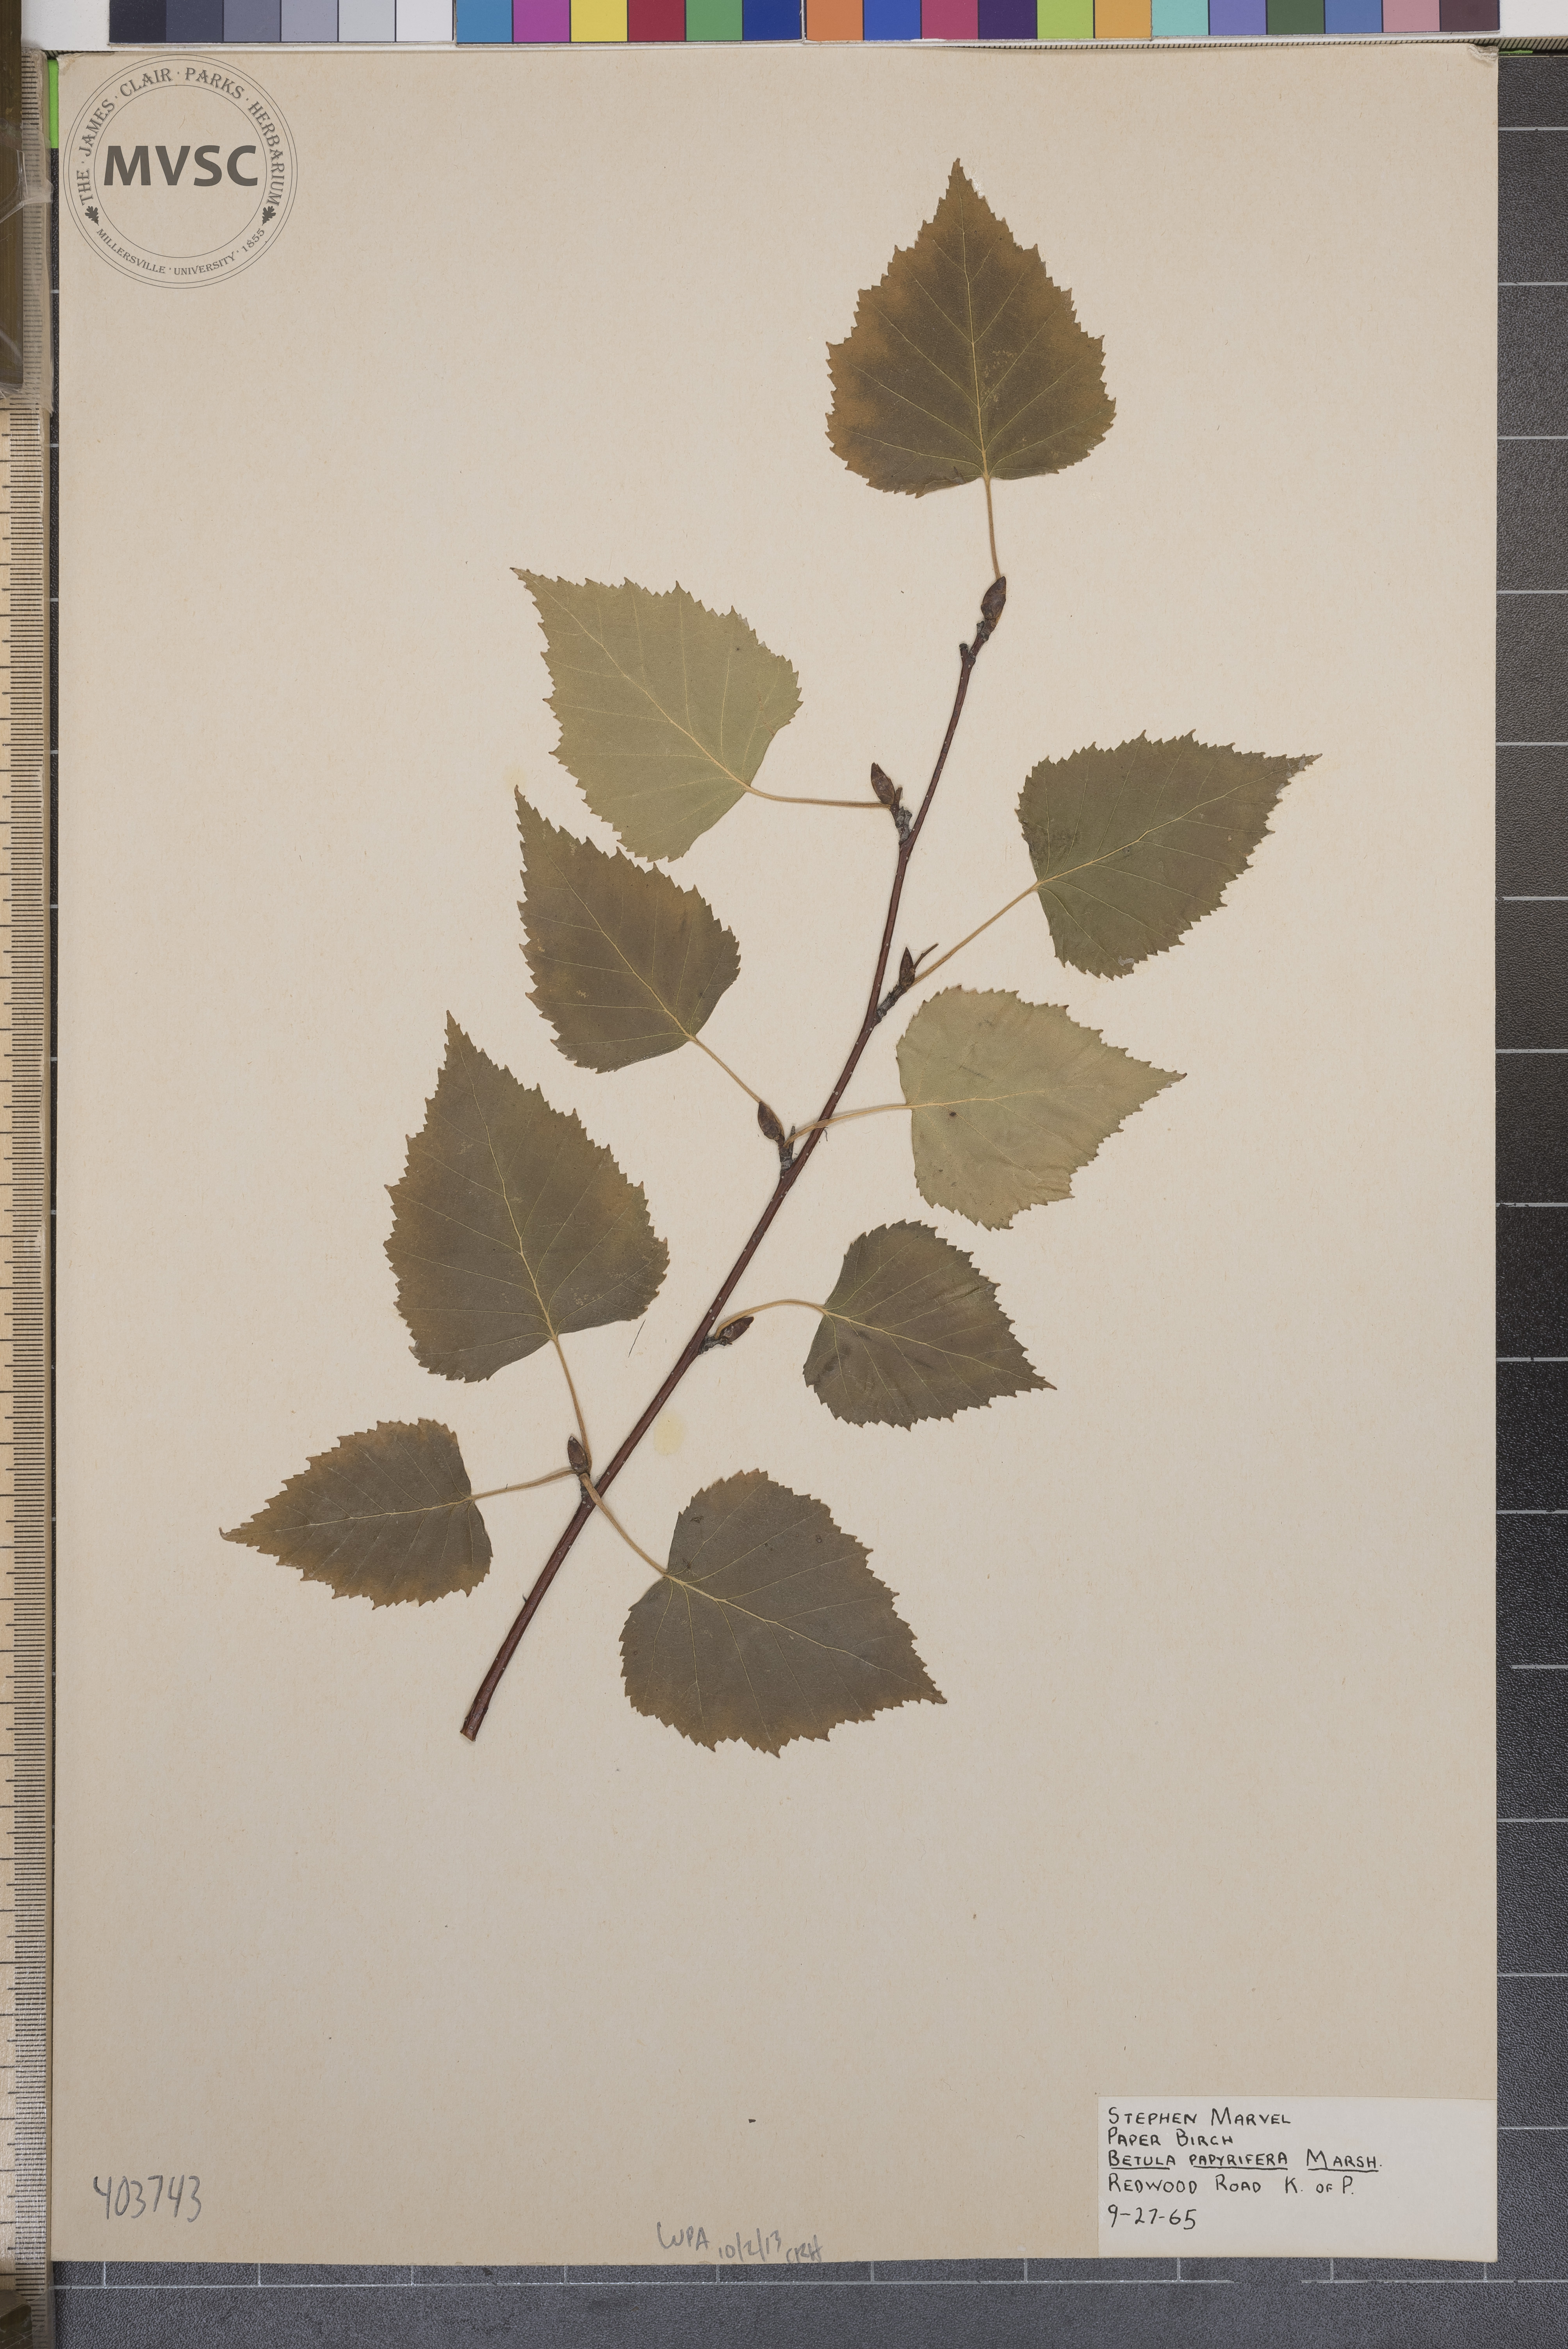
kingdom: Plantae
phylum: Tracheophyta
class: Magnoliopsida
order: Fagales
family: Betulaceae
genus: Betula
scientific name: Betula papyrifera
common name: Paper Birch
